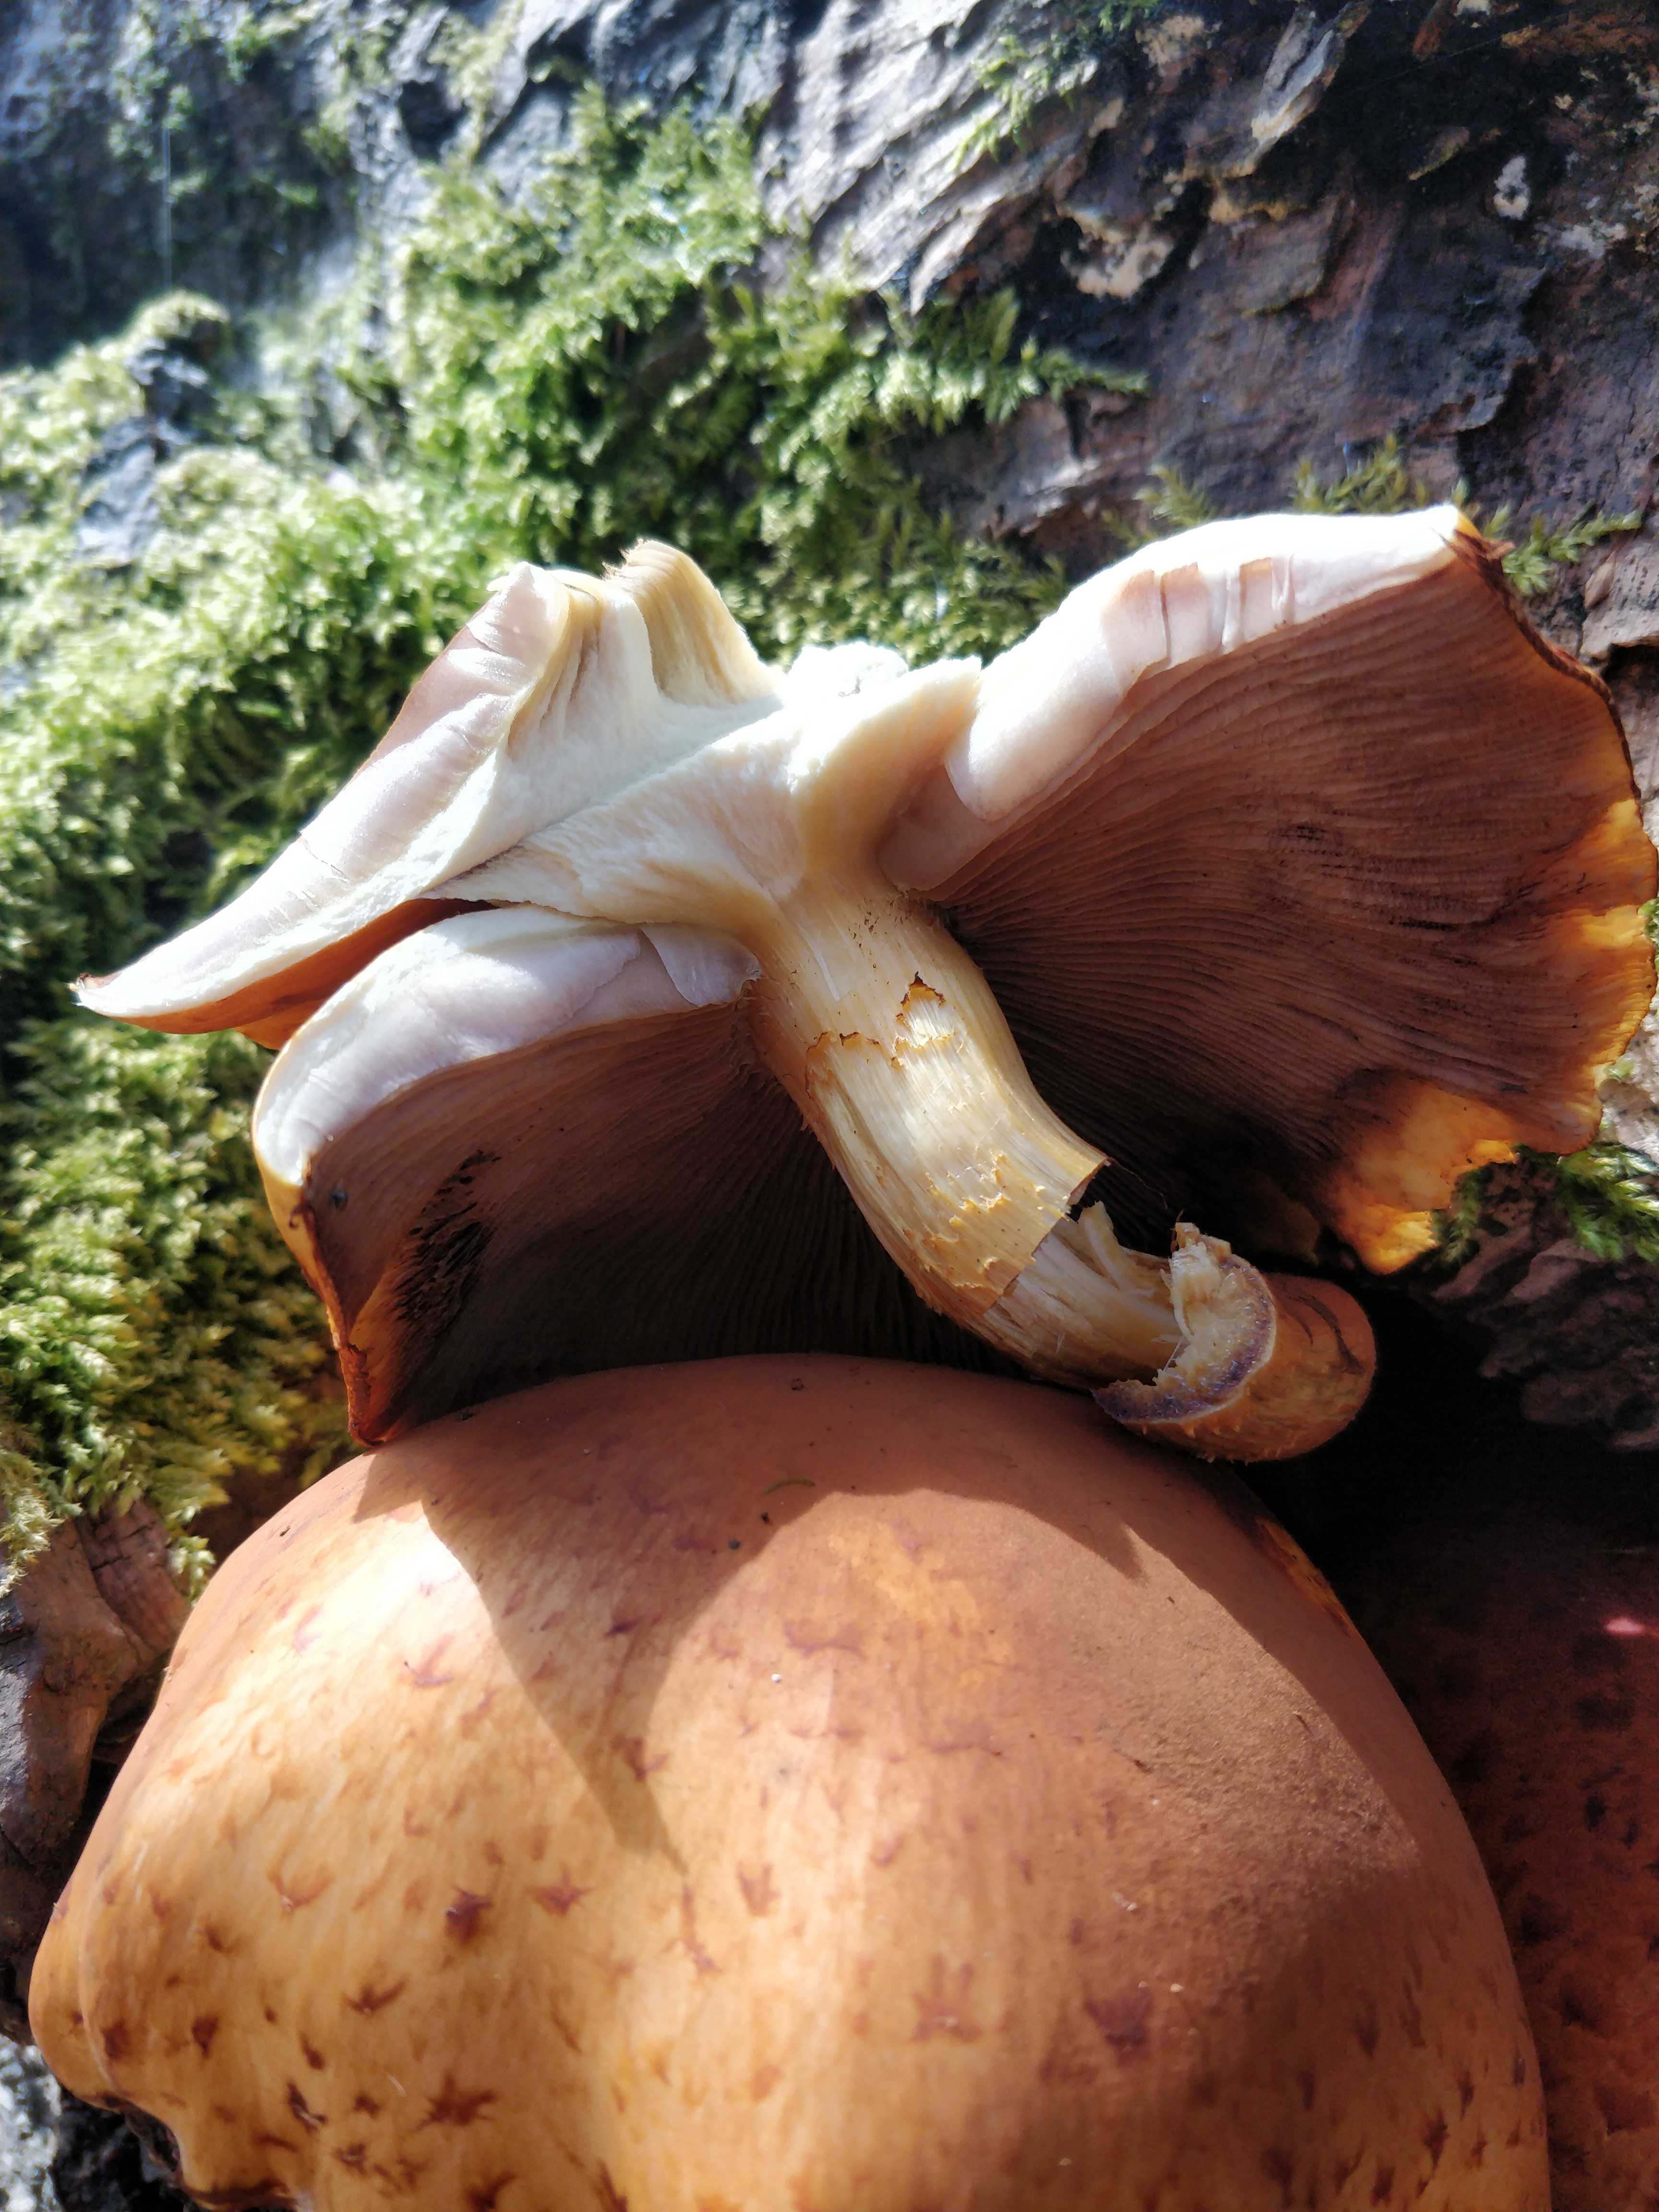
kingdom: Fungi
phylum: Basidiomycota
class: Agaricomycetes
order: Agaricales
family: Strophariaceae
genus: Pholiota
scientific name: Pholiota adiposa
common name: højtsiddende skælhat
